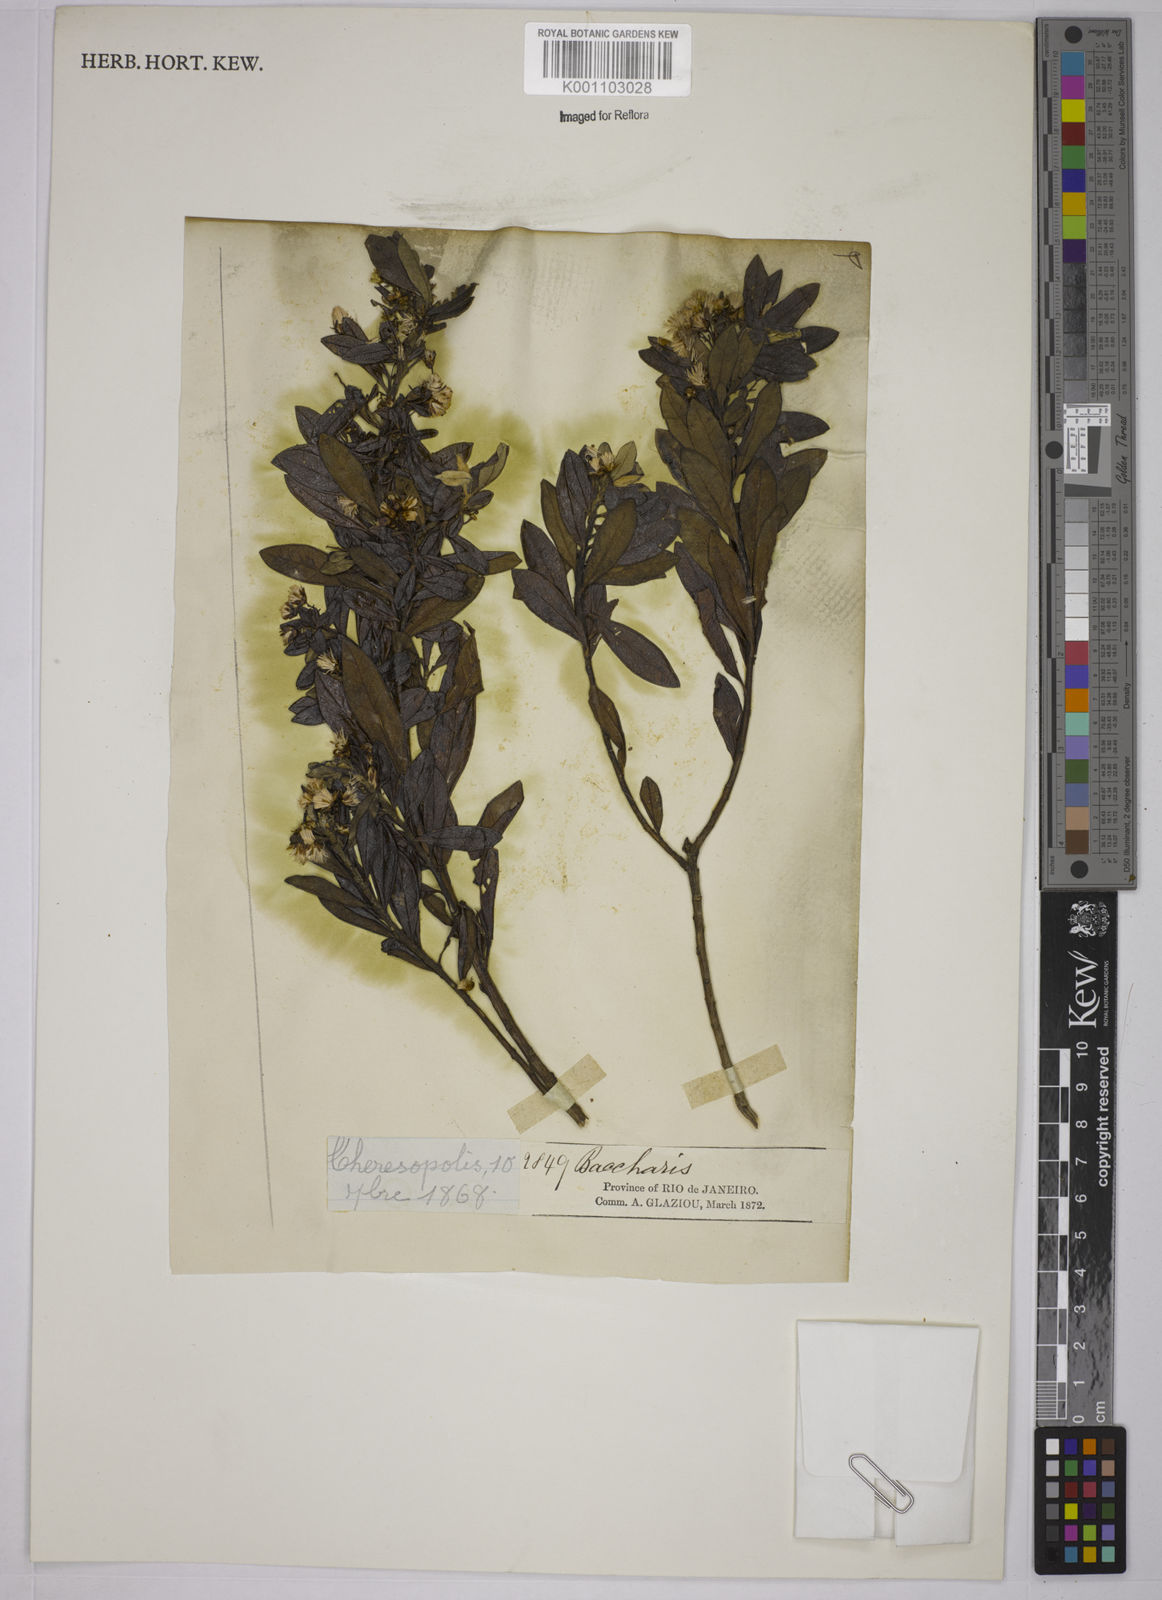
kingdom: Plantae
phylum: Tracheophyta
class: Magnoliopsida
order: Asterales
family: Asteraceae
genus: Baccharis
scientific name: Baccharis calvescens
